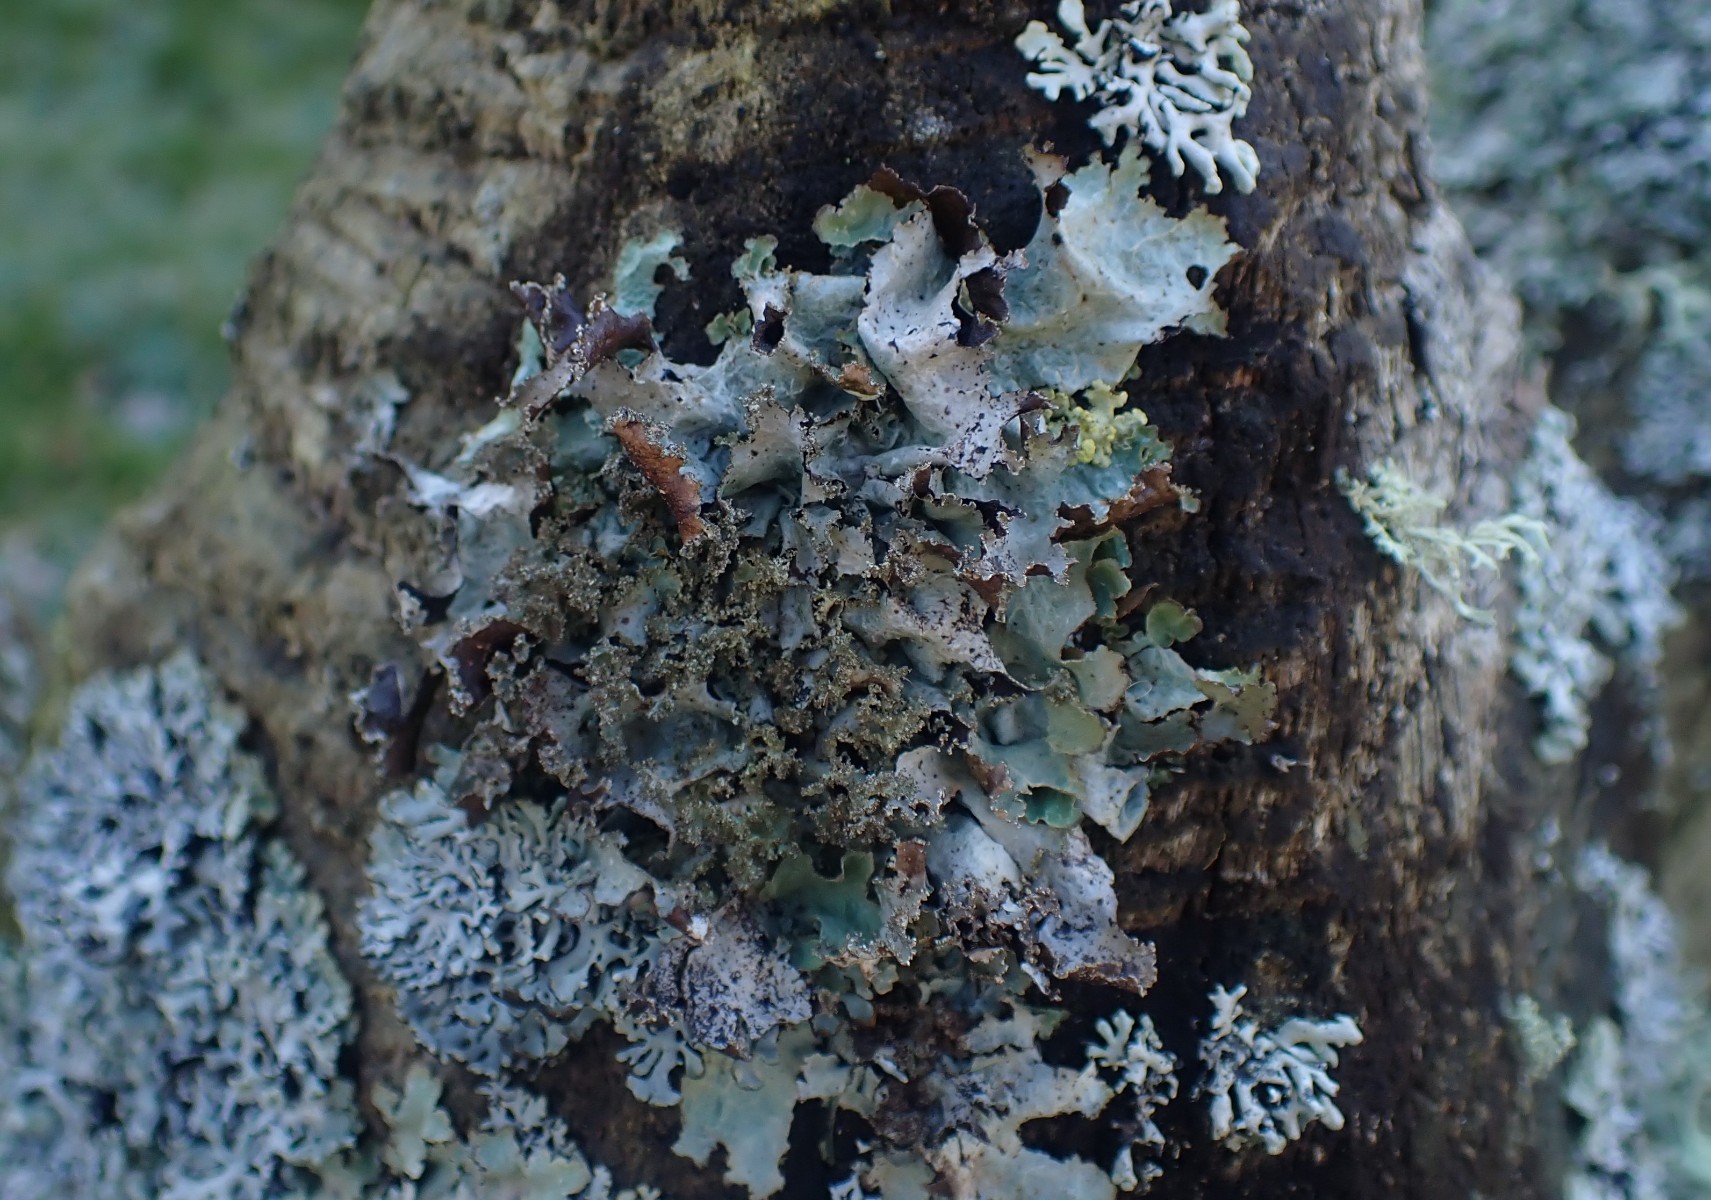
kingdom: Fungi
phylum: Ascomycota
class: Lecanoromycetes
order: Lecanorales
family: Parmeliaceae
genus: Platismatia
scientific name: Platismatia glauca
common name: blågrå papirlav
